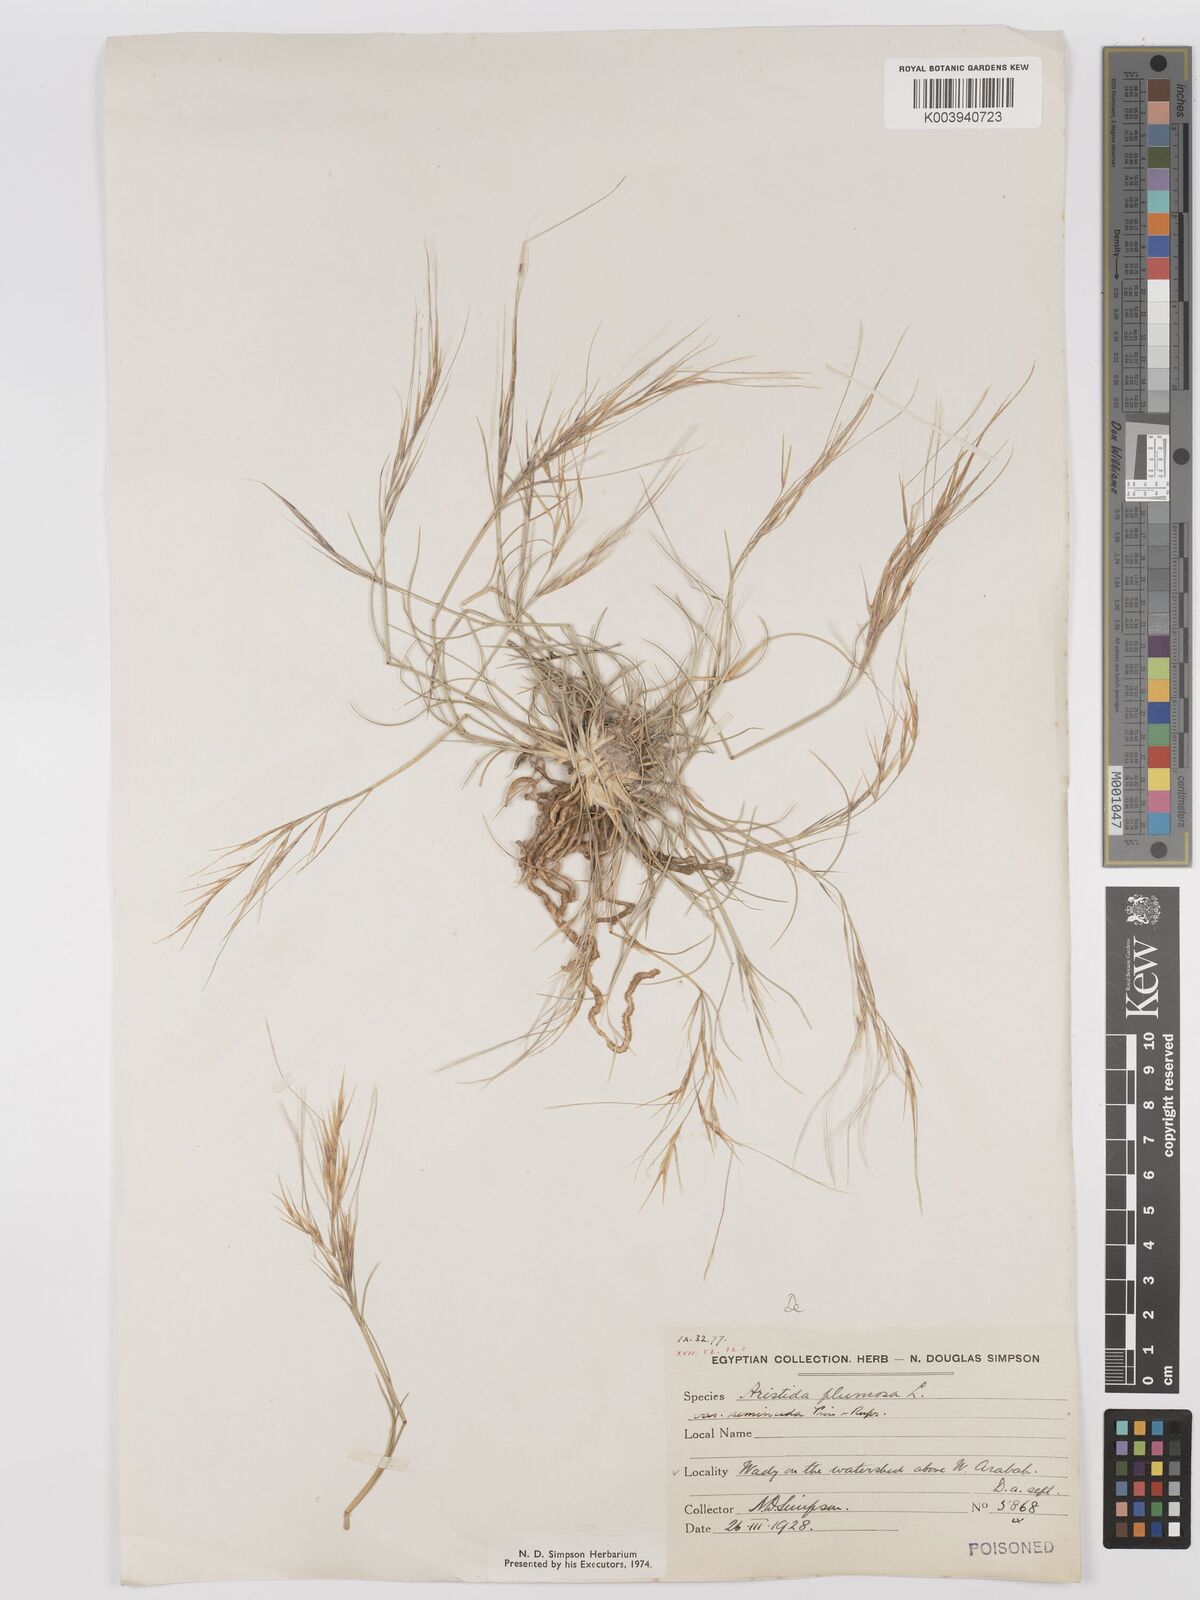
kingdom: Plantae
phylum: Tracheophyta
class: Liliopsida
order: Poales
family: Poaceae
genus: Stipagrostis
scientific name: Stipagrostis plumosa
